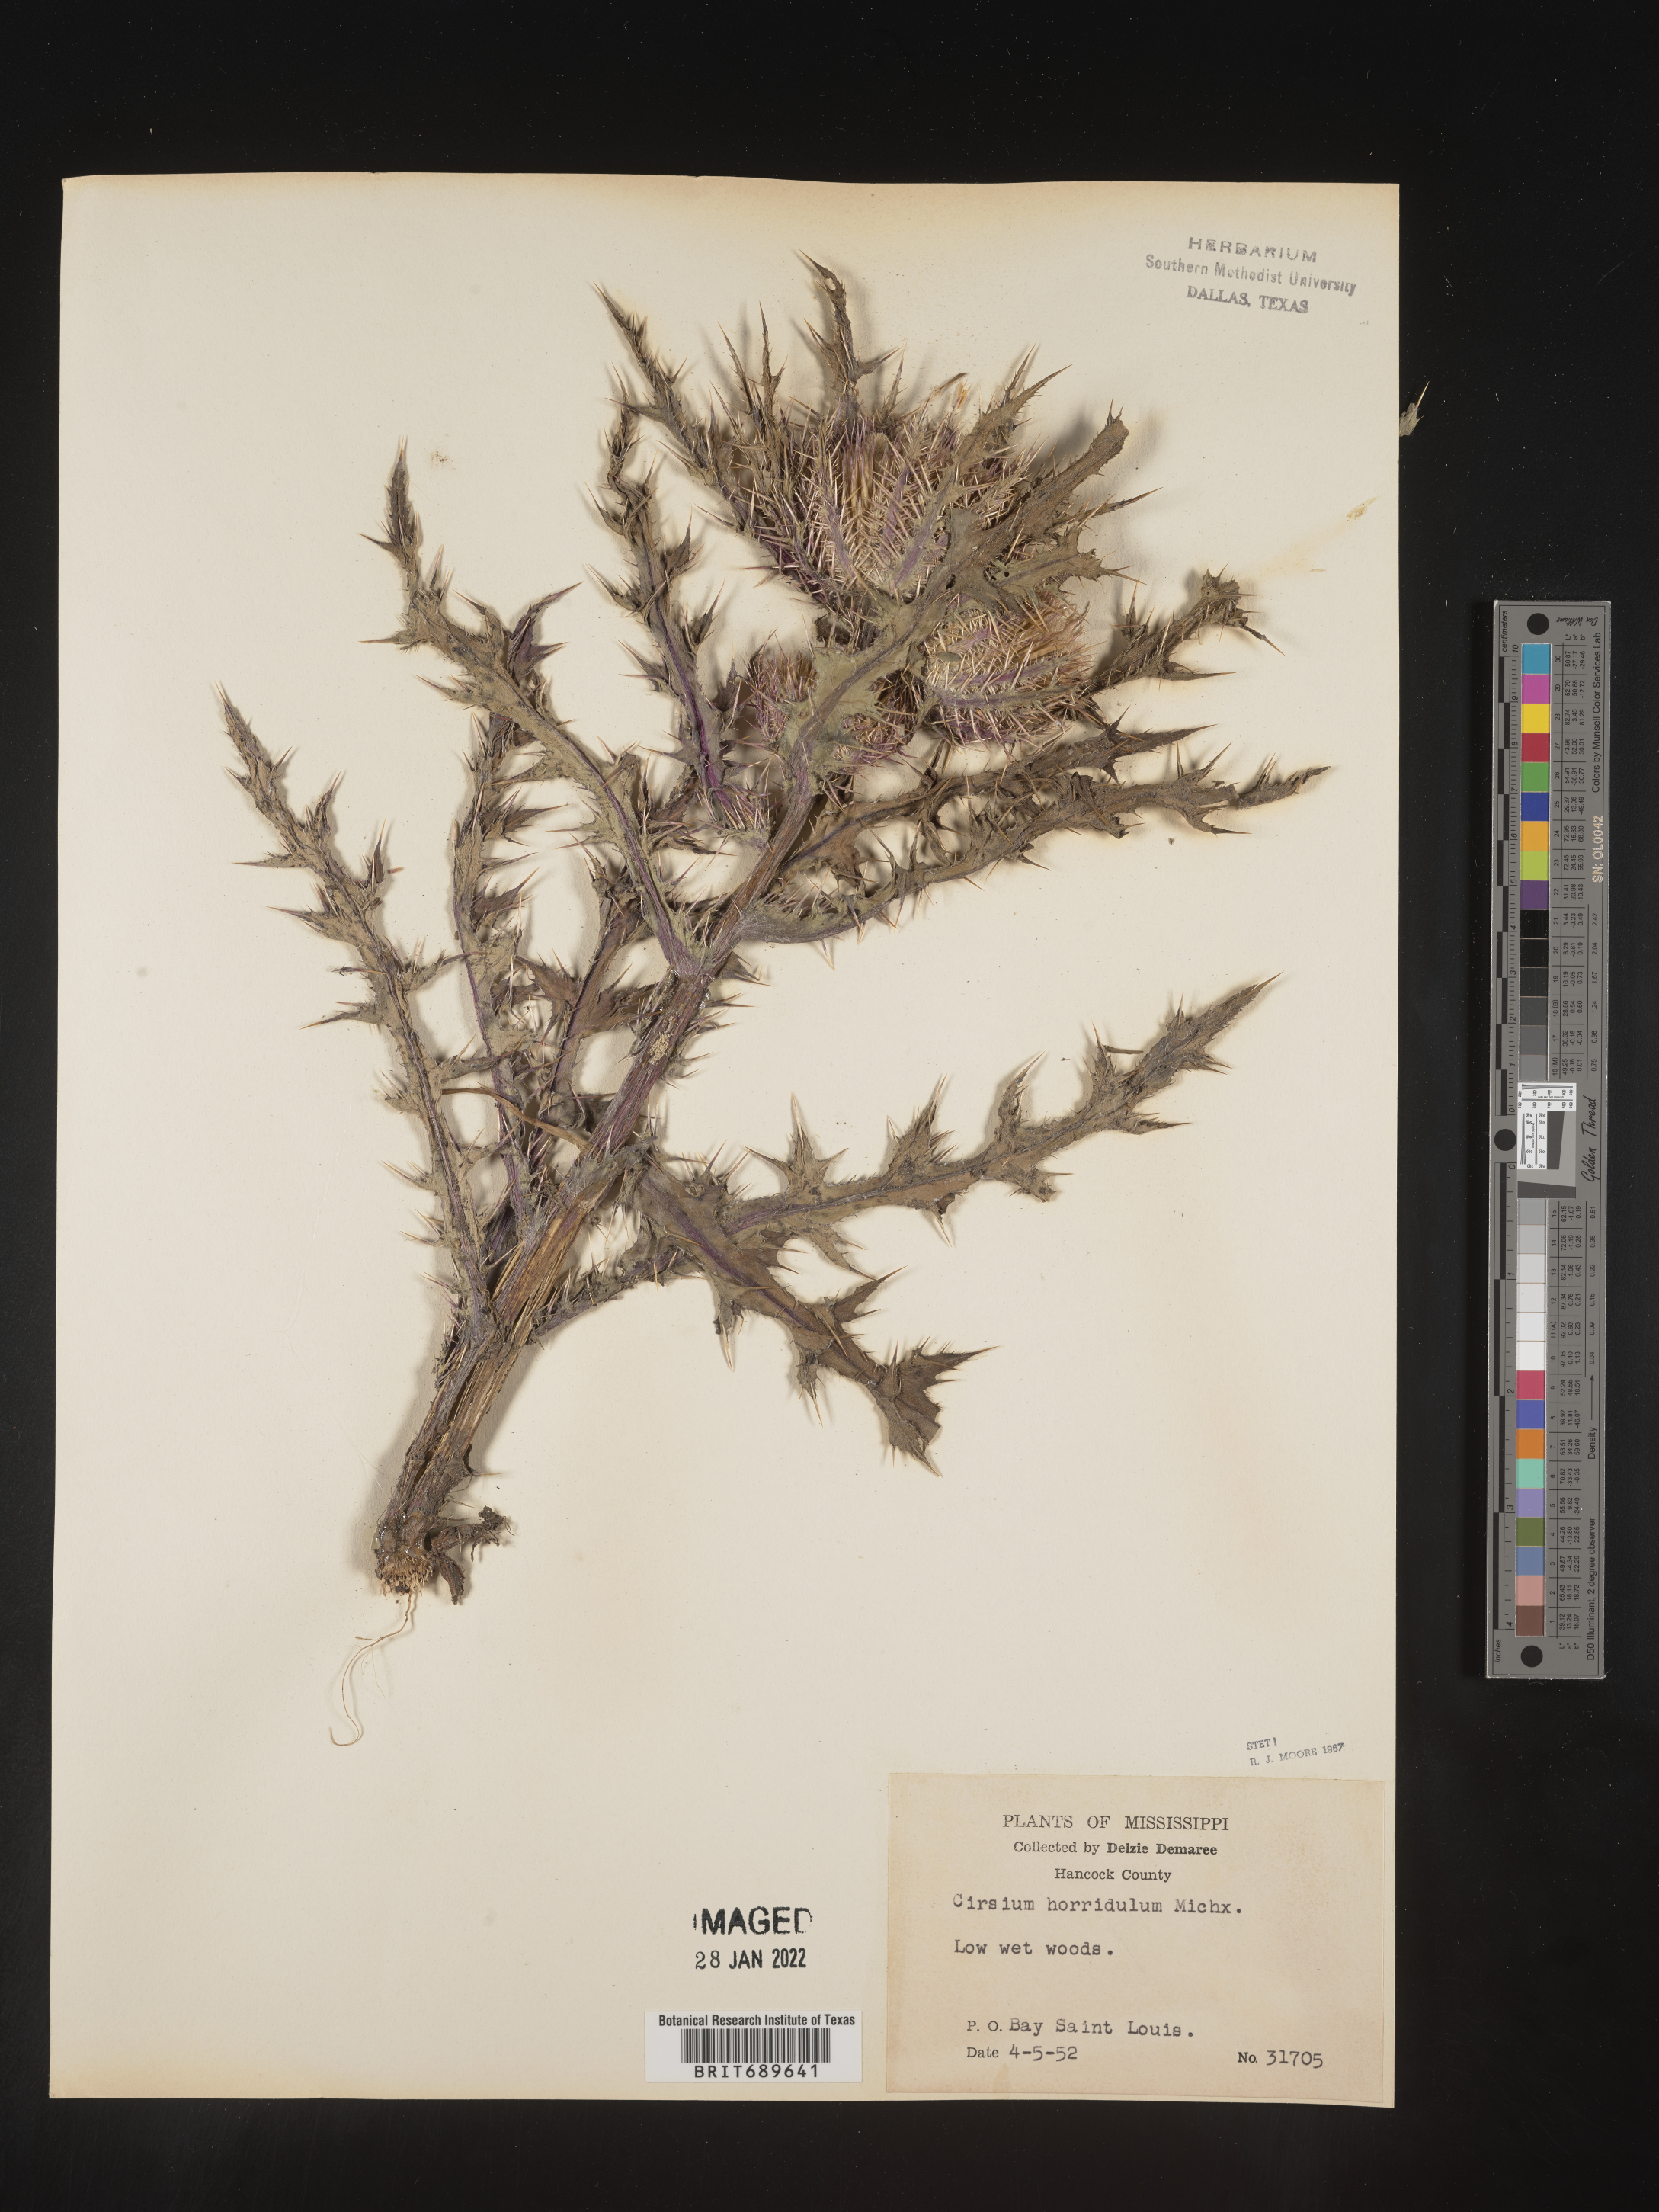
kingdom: Plantae
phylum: Tracheophyta
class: Magnoliopsida
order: Asterales
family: Asteraceae
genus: Cirsium
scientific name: Cirsium horridulum
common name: Bristly thistle
